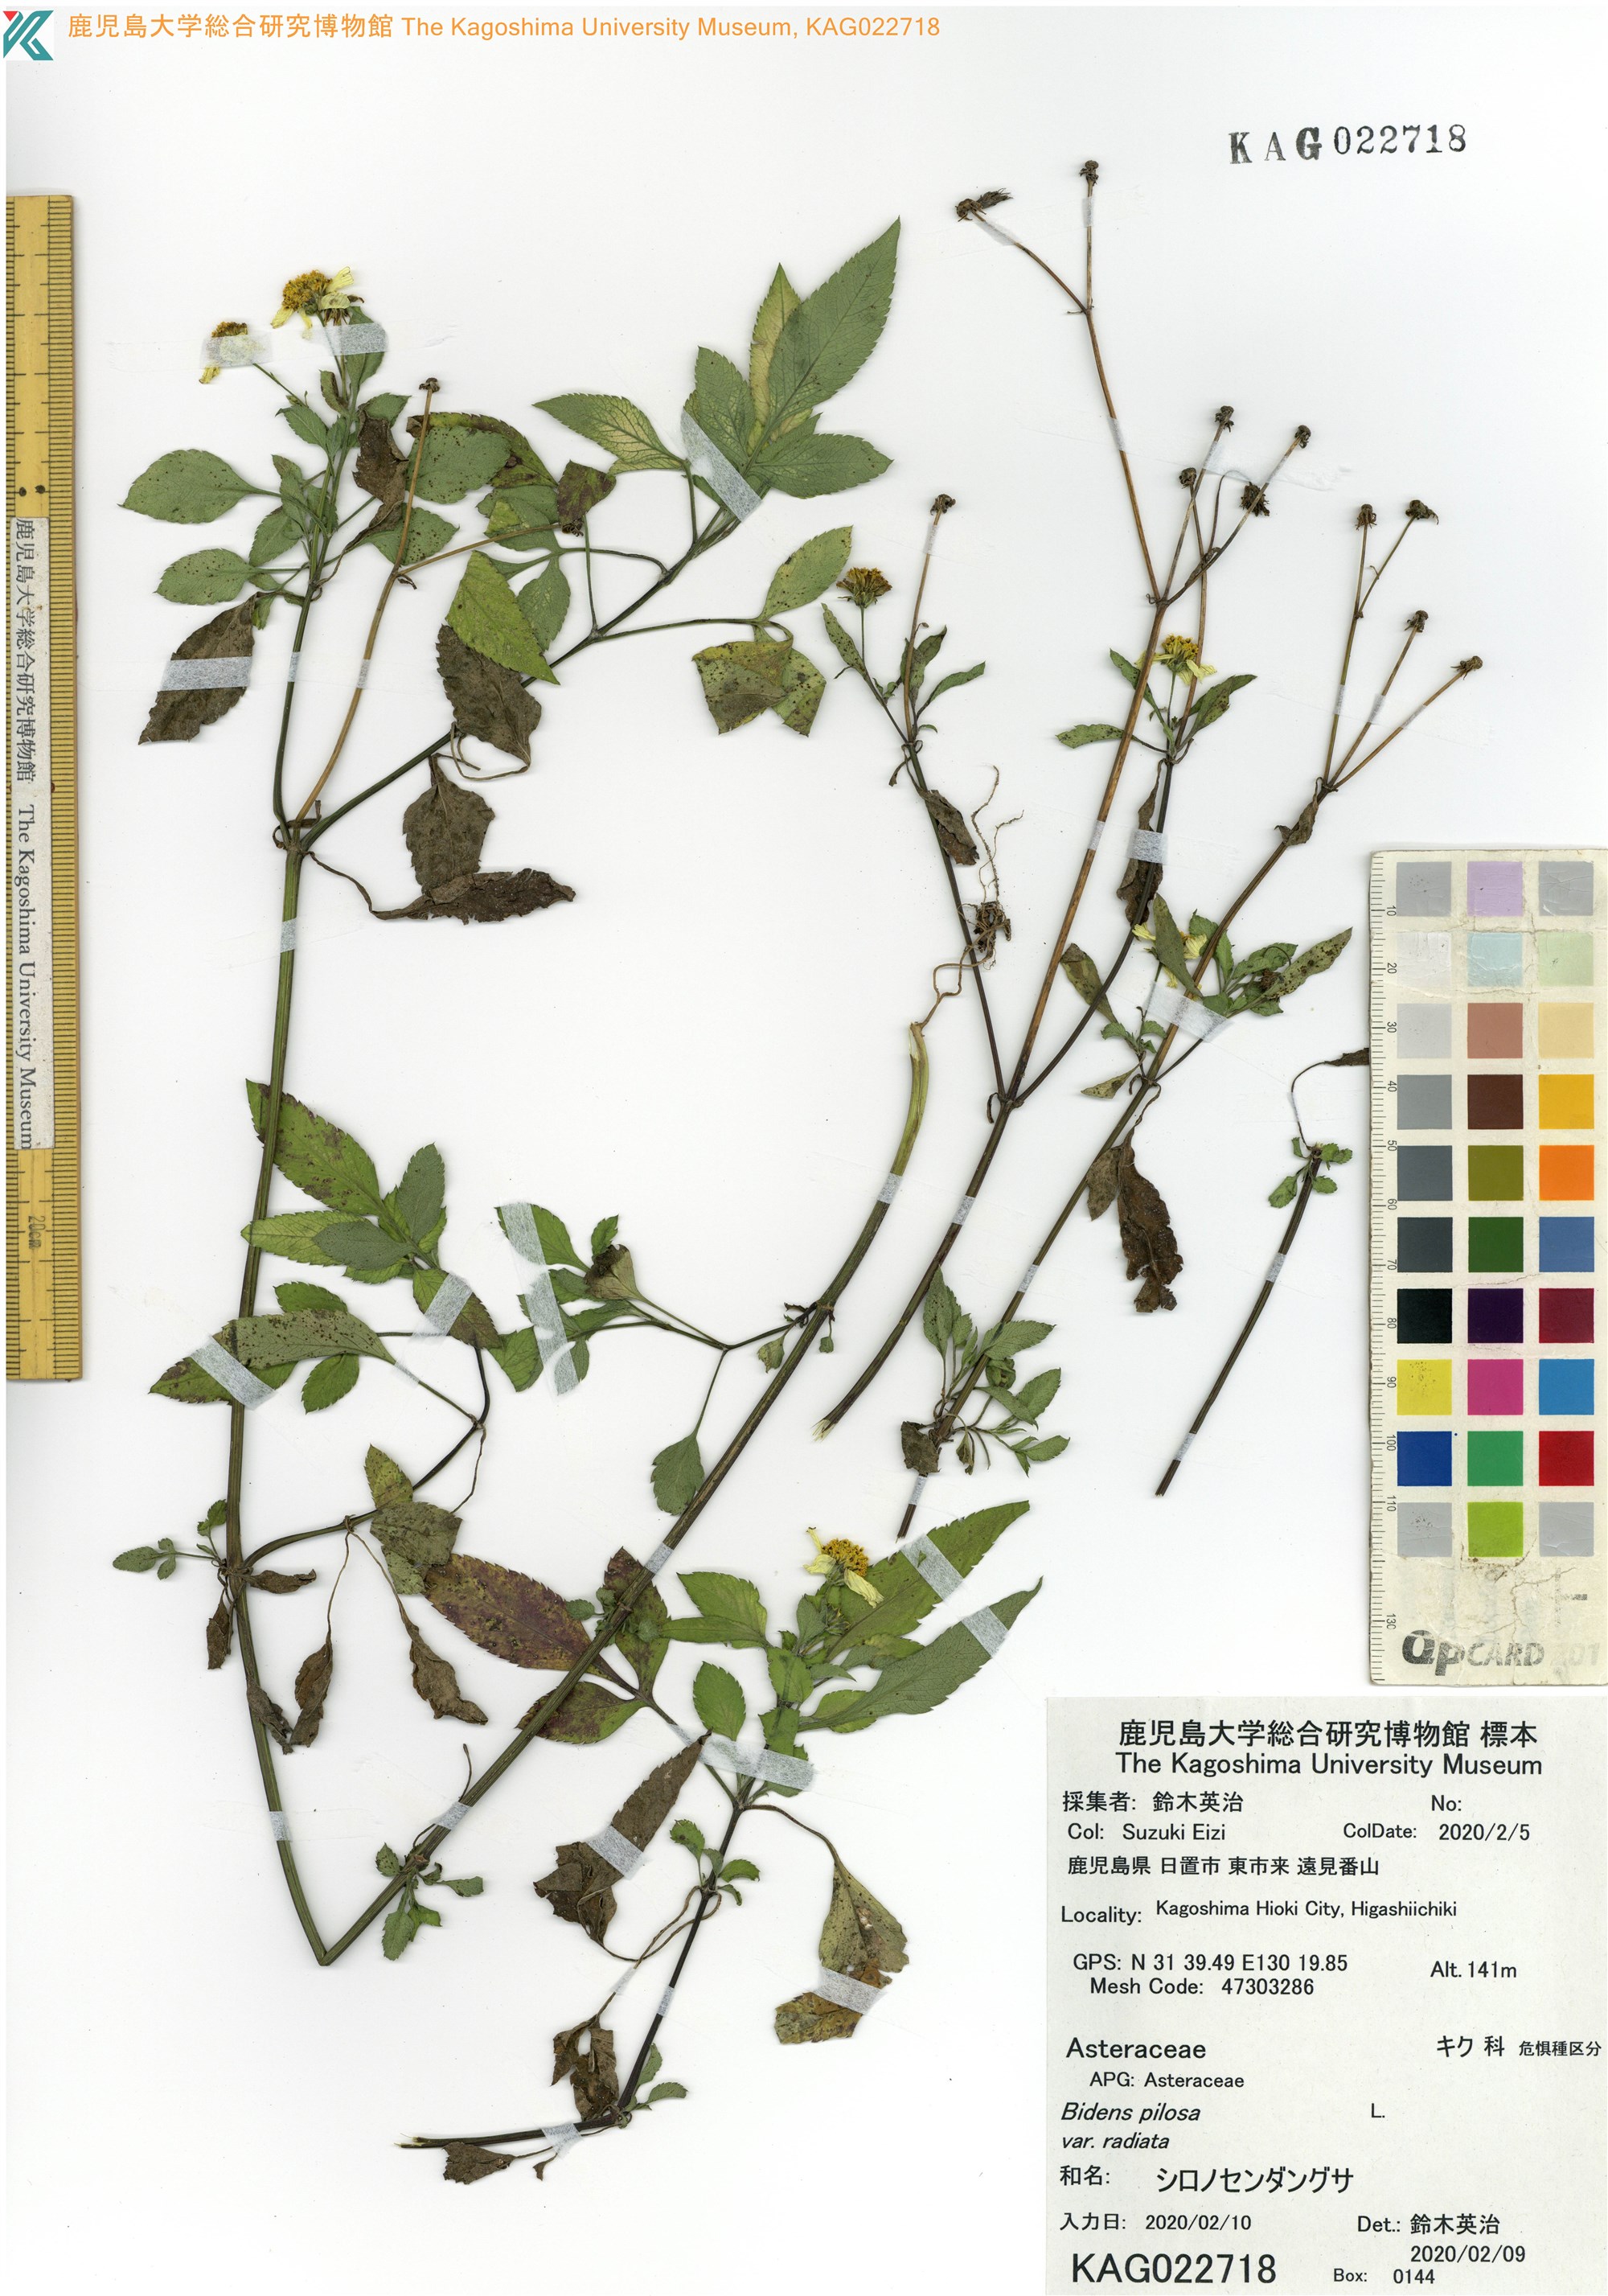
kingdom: Plantae
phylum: Tracheophyta
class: Magnoliopsida
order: Asterales
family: Asteraceae
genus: Bidens
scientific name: Bidens pilosa
